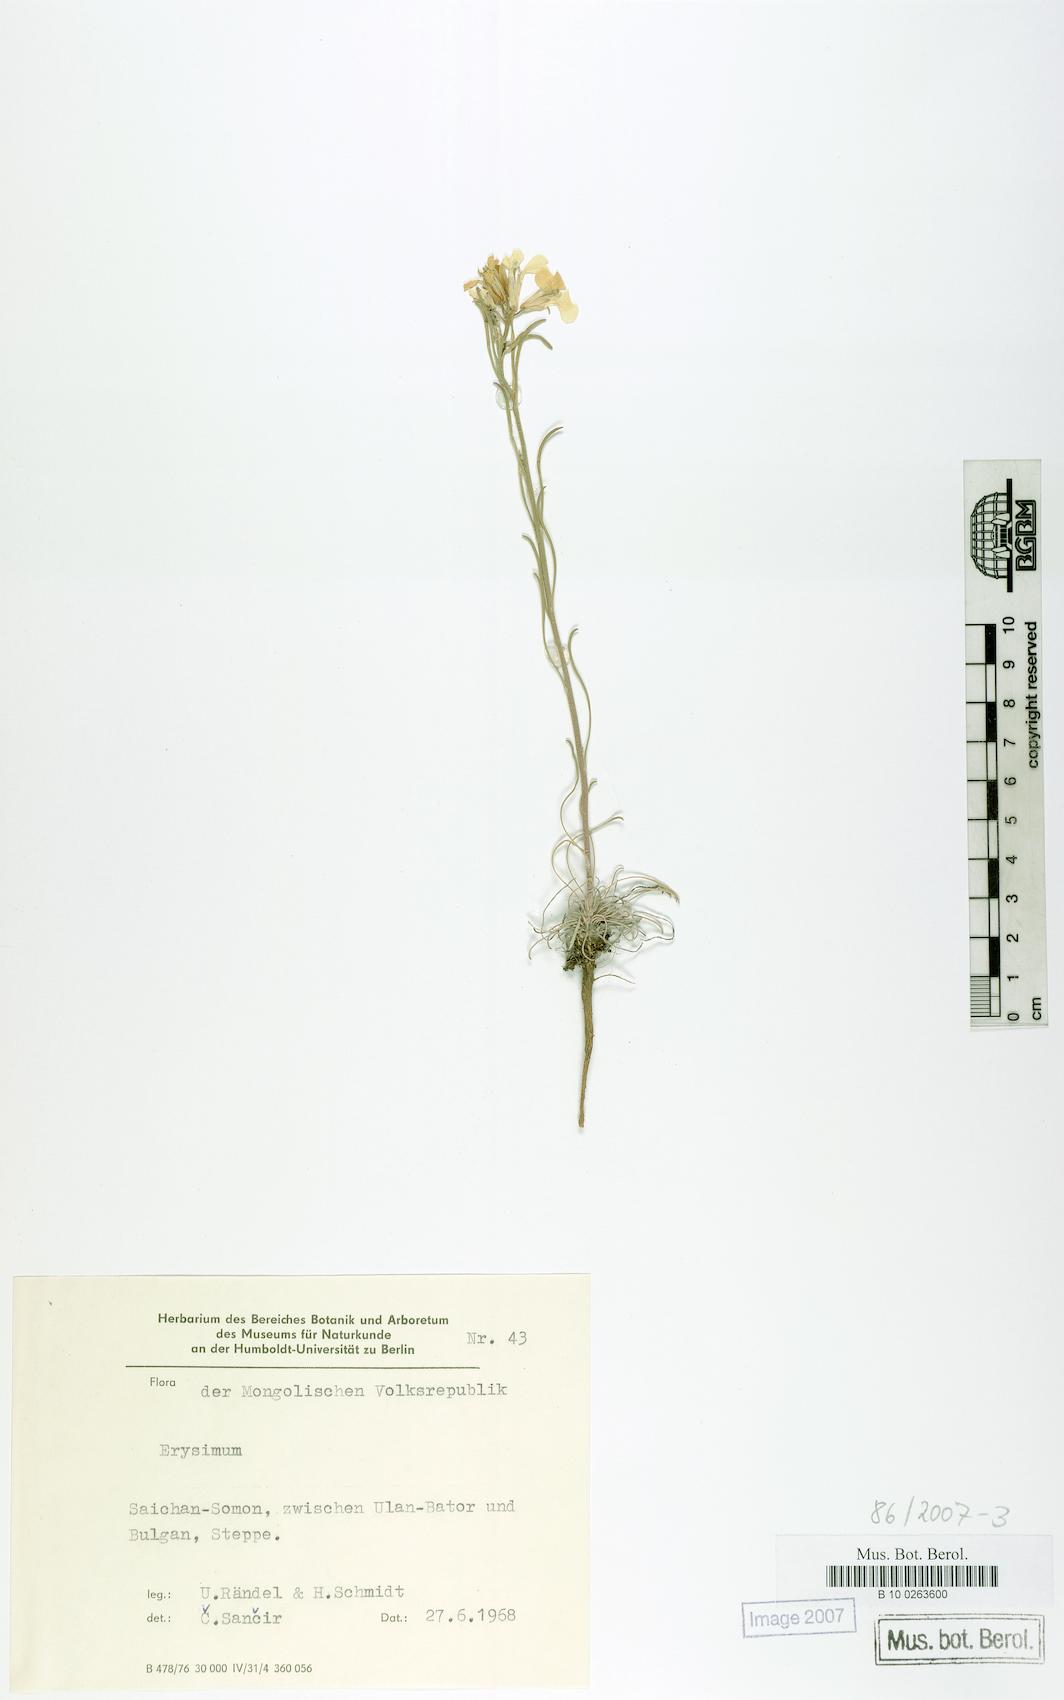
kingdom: Plantae
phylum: Tracheophyta
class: Magnoliopsida
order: Brassicales
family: Brassicaceae
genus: Erysimum
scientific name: Erysimum
